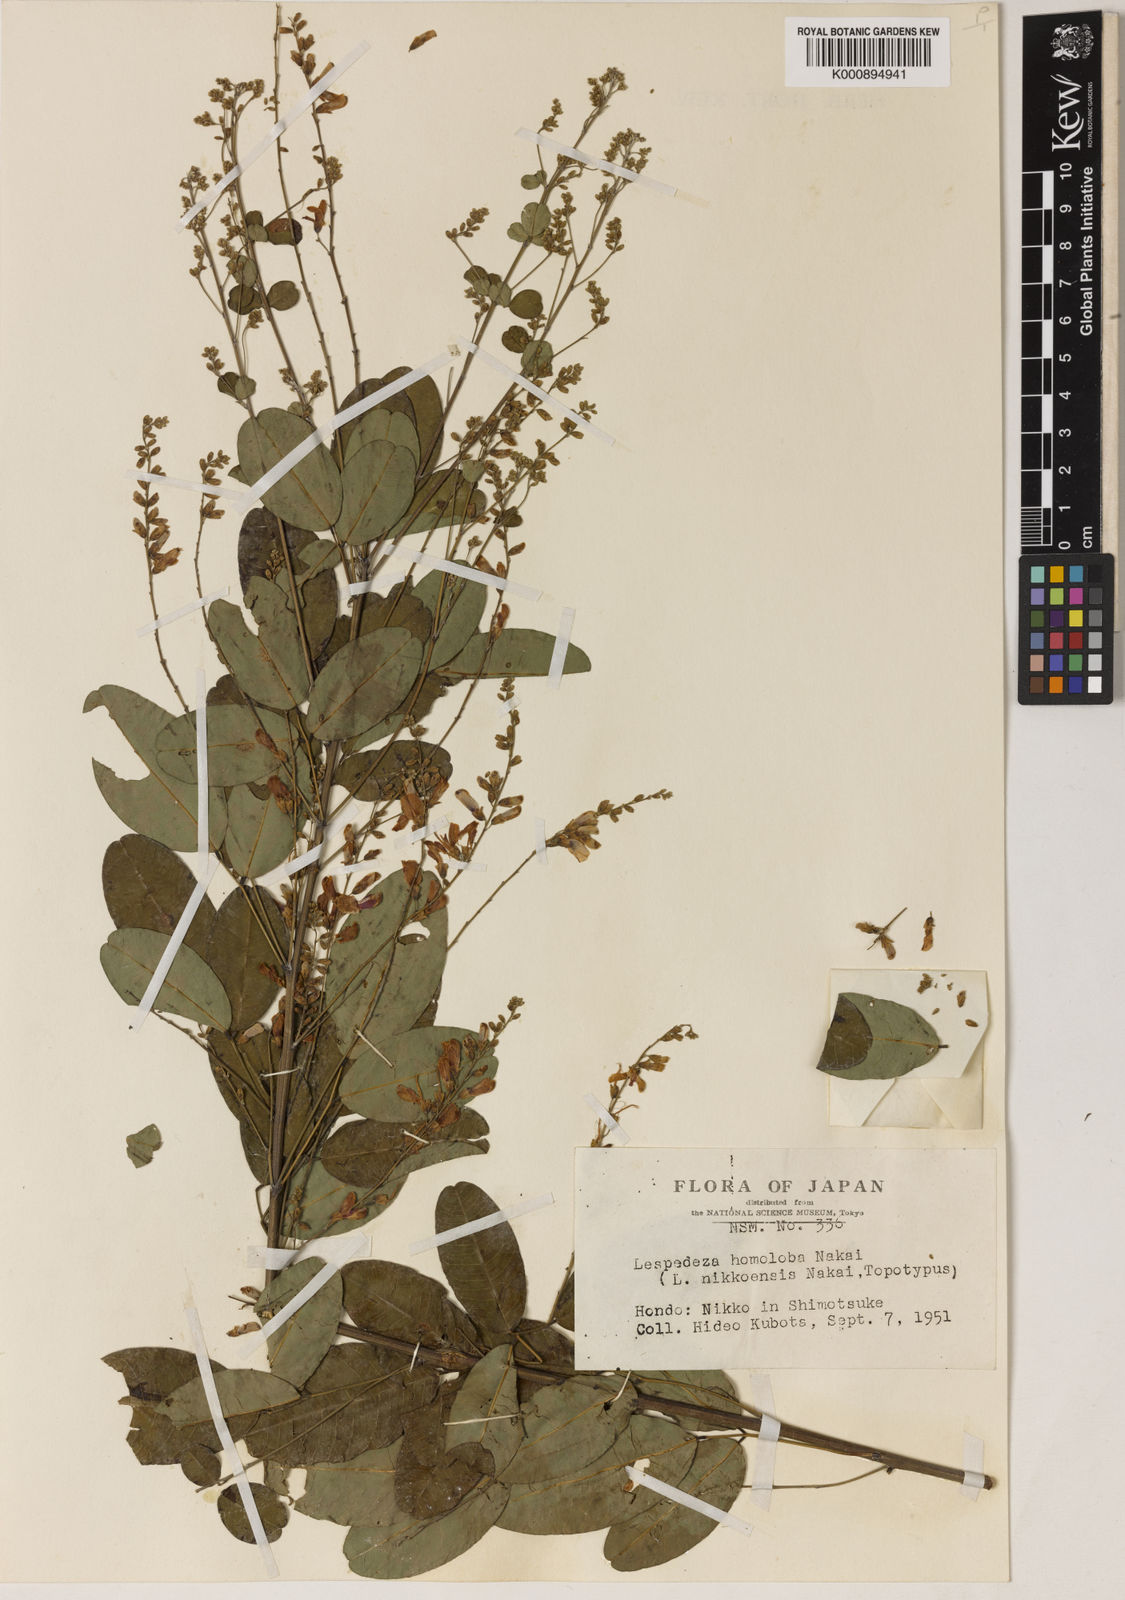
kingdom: Plantae
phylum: Tracheophyta
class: Magnoliopsida
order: Fabales
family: Fabaceae
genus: Lespedeza
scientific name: Lespedeza homoloba
